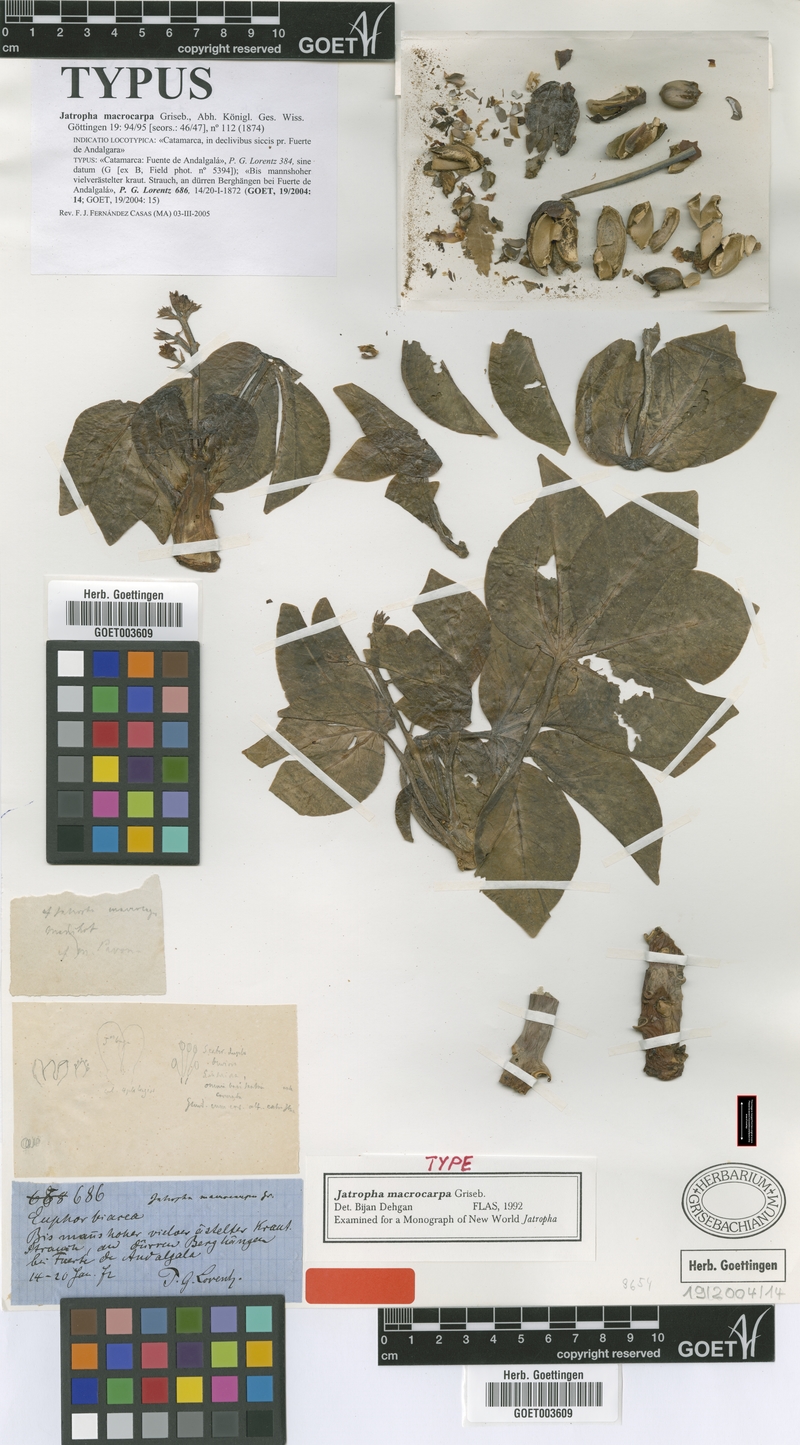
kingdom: Plantae
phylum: Tracheophyta
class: Magnoliopsida
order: Malpighiales
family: Euphorbiaceae
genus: Jatropha
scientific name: Jatropha macrocarpa
